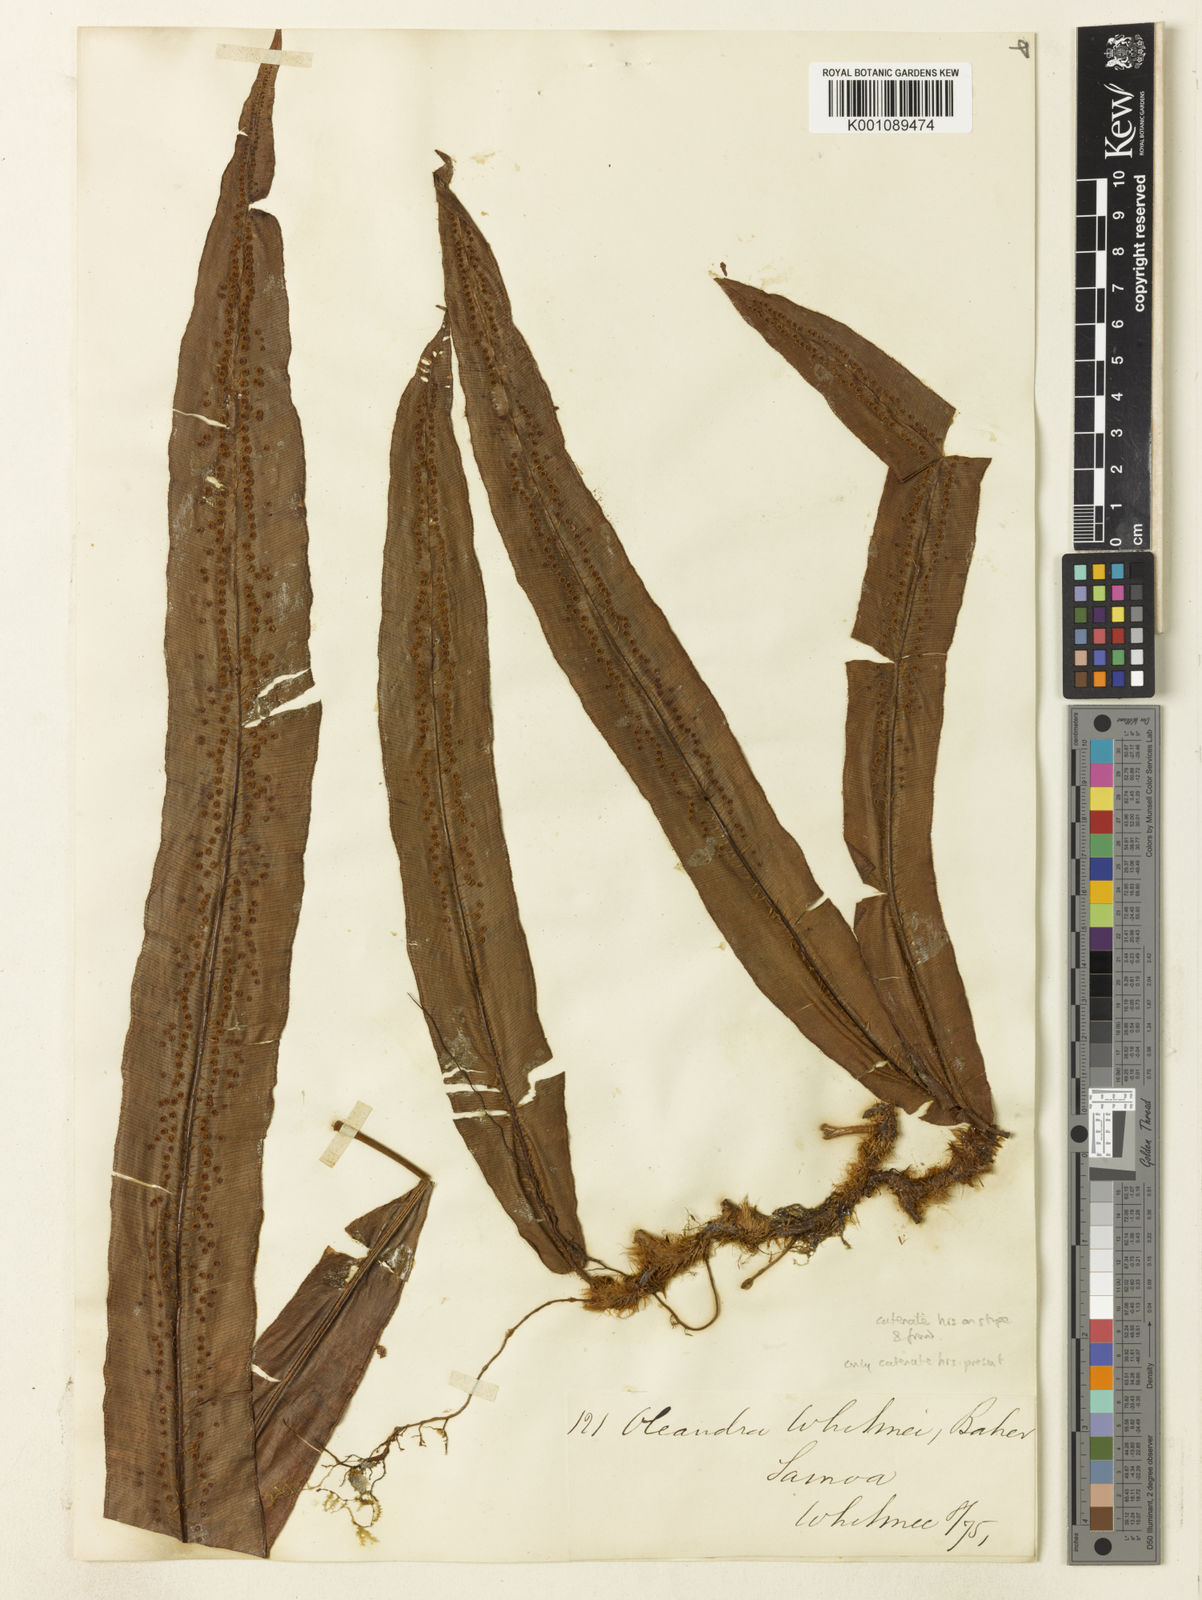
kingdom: Plantae
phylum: Tracheophyta
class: Polypodiopsida
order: Polypodiales
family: Oleandraceae
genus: Oleandra
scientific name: Oleandra sibbaldii
